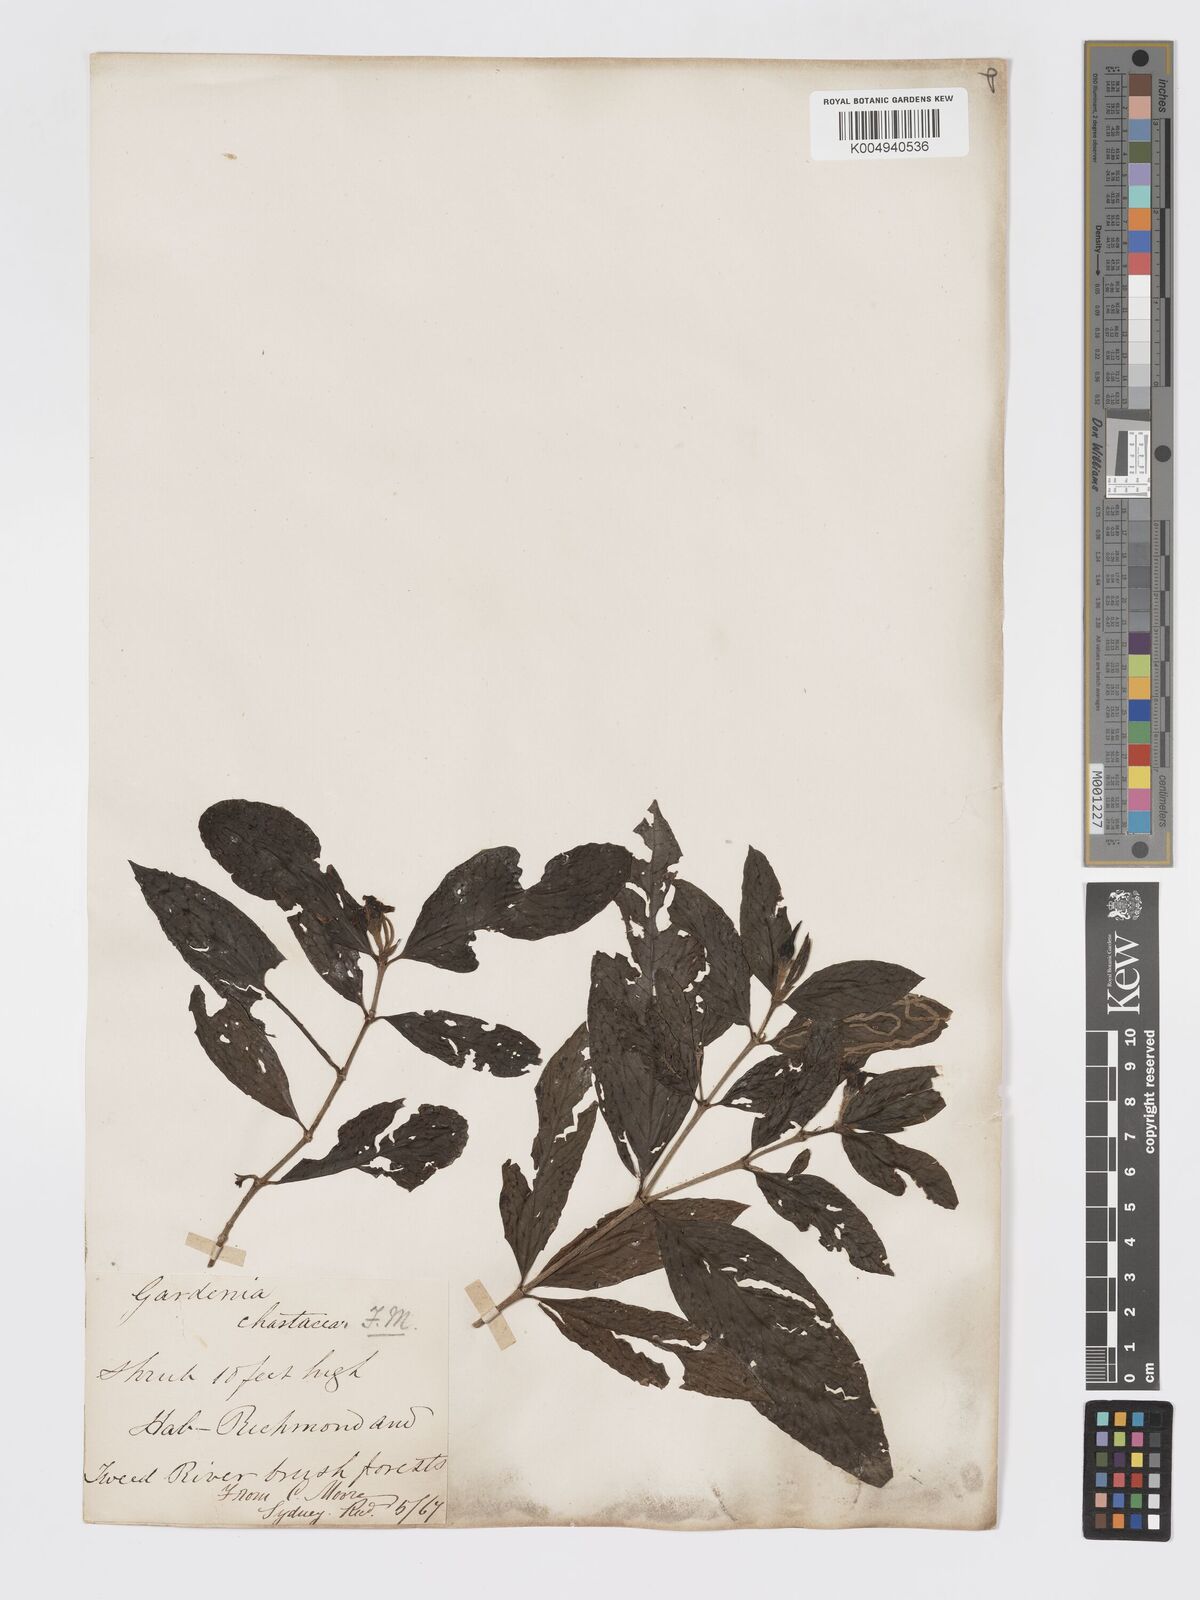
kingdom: Plantae
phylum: Tracheophyta
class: Magnoliopsida
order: Gentianales
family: Rubiaceae
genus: Atractocarpus
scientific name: Atractocarpus chartaceus
